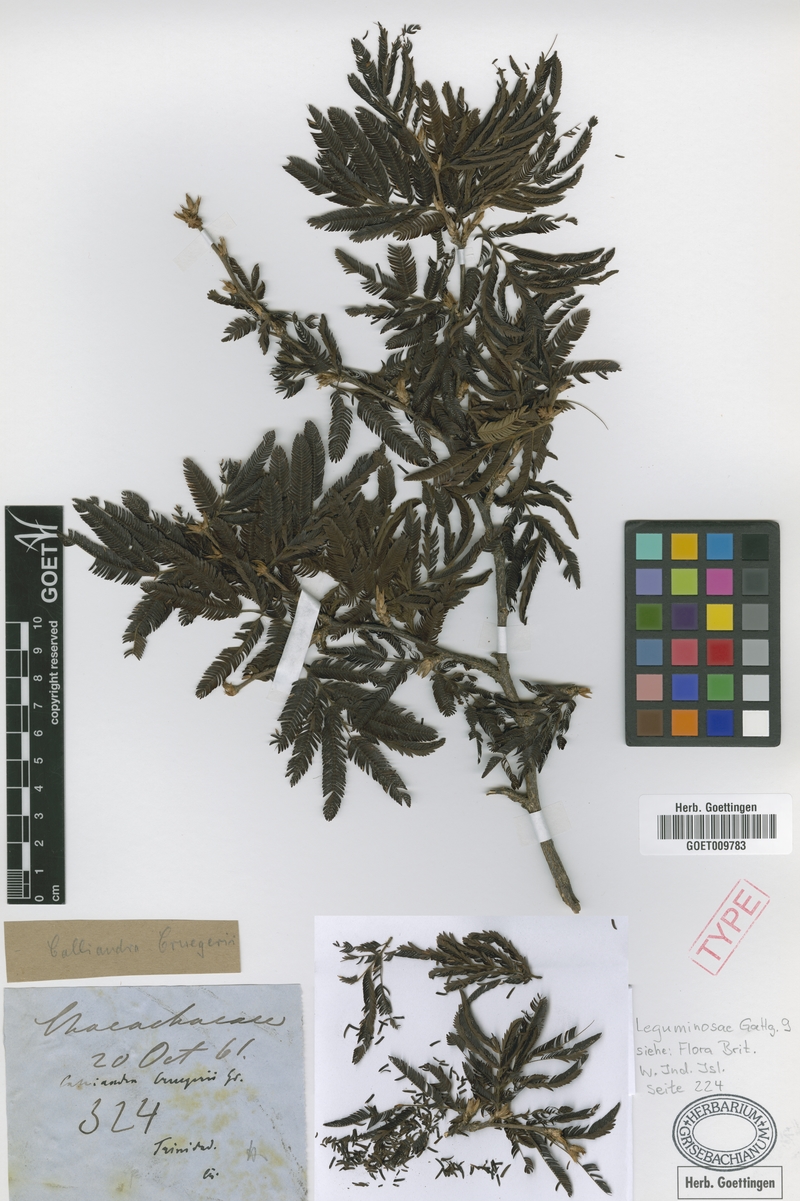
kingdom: Plantae
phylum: Tracheophyta
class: Magnoliopsida
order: Fabales
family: Fabaceae
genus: Calliandra
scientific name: Calliandra cruegeri
